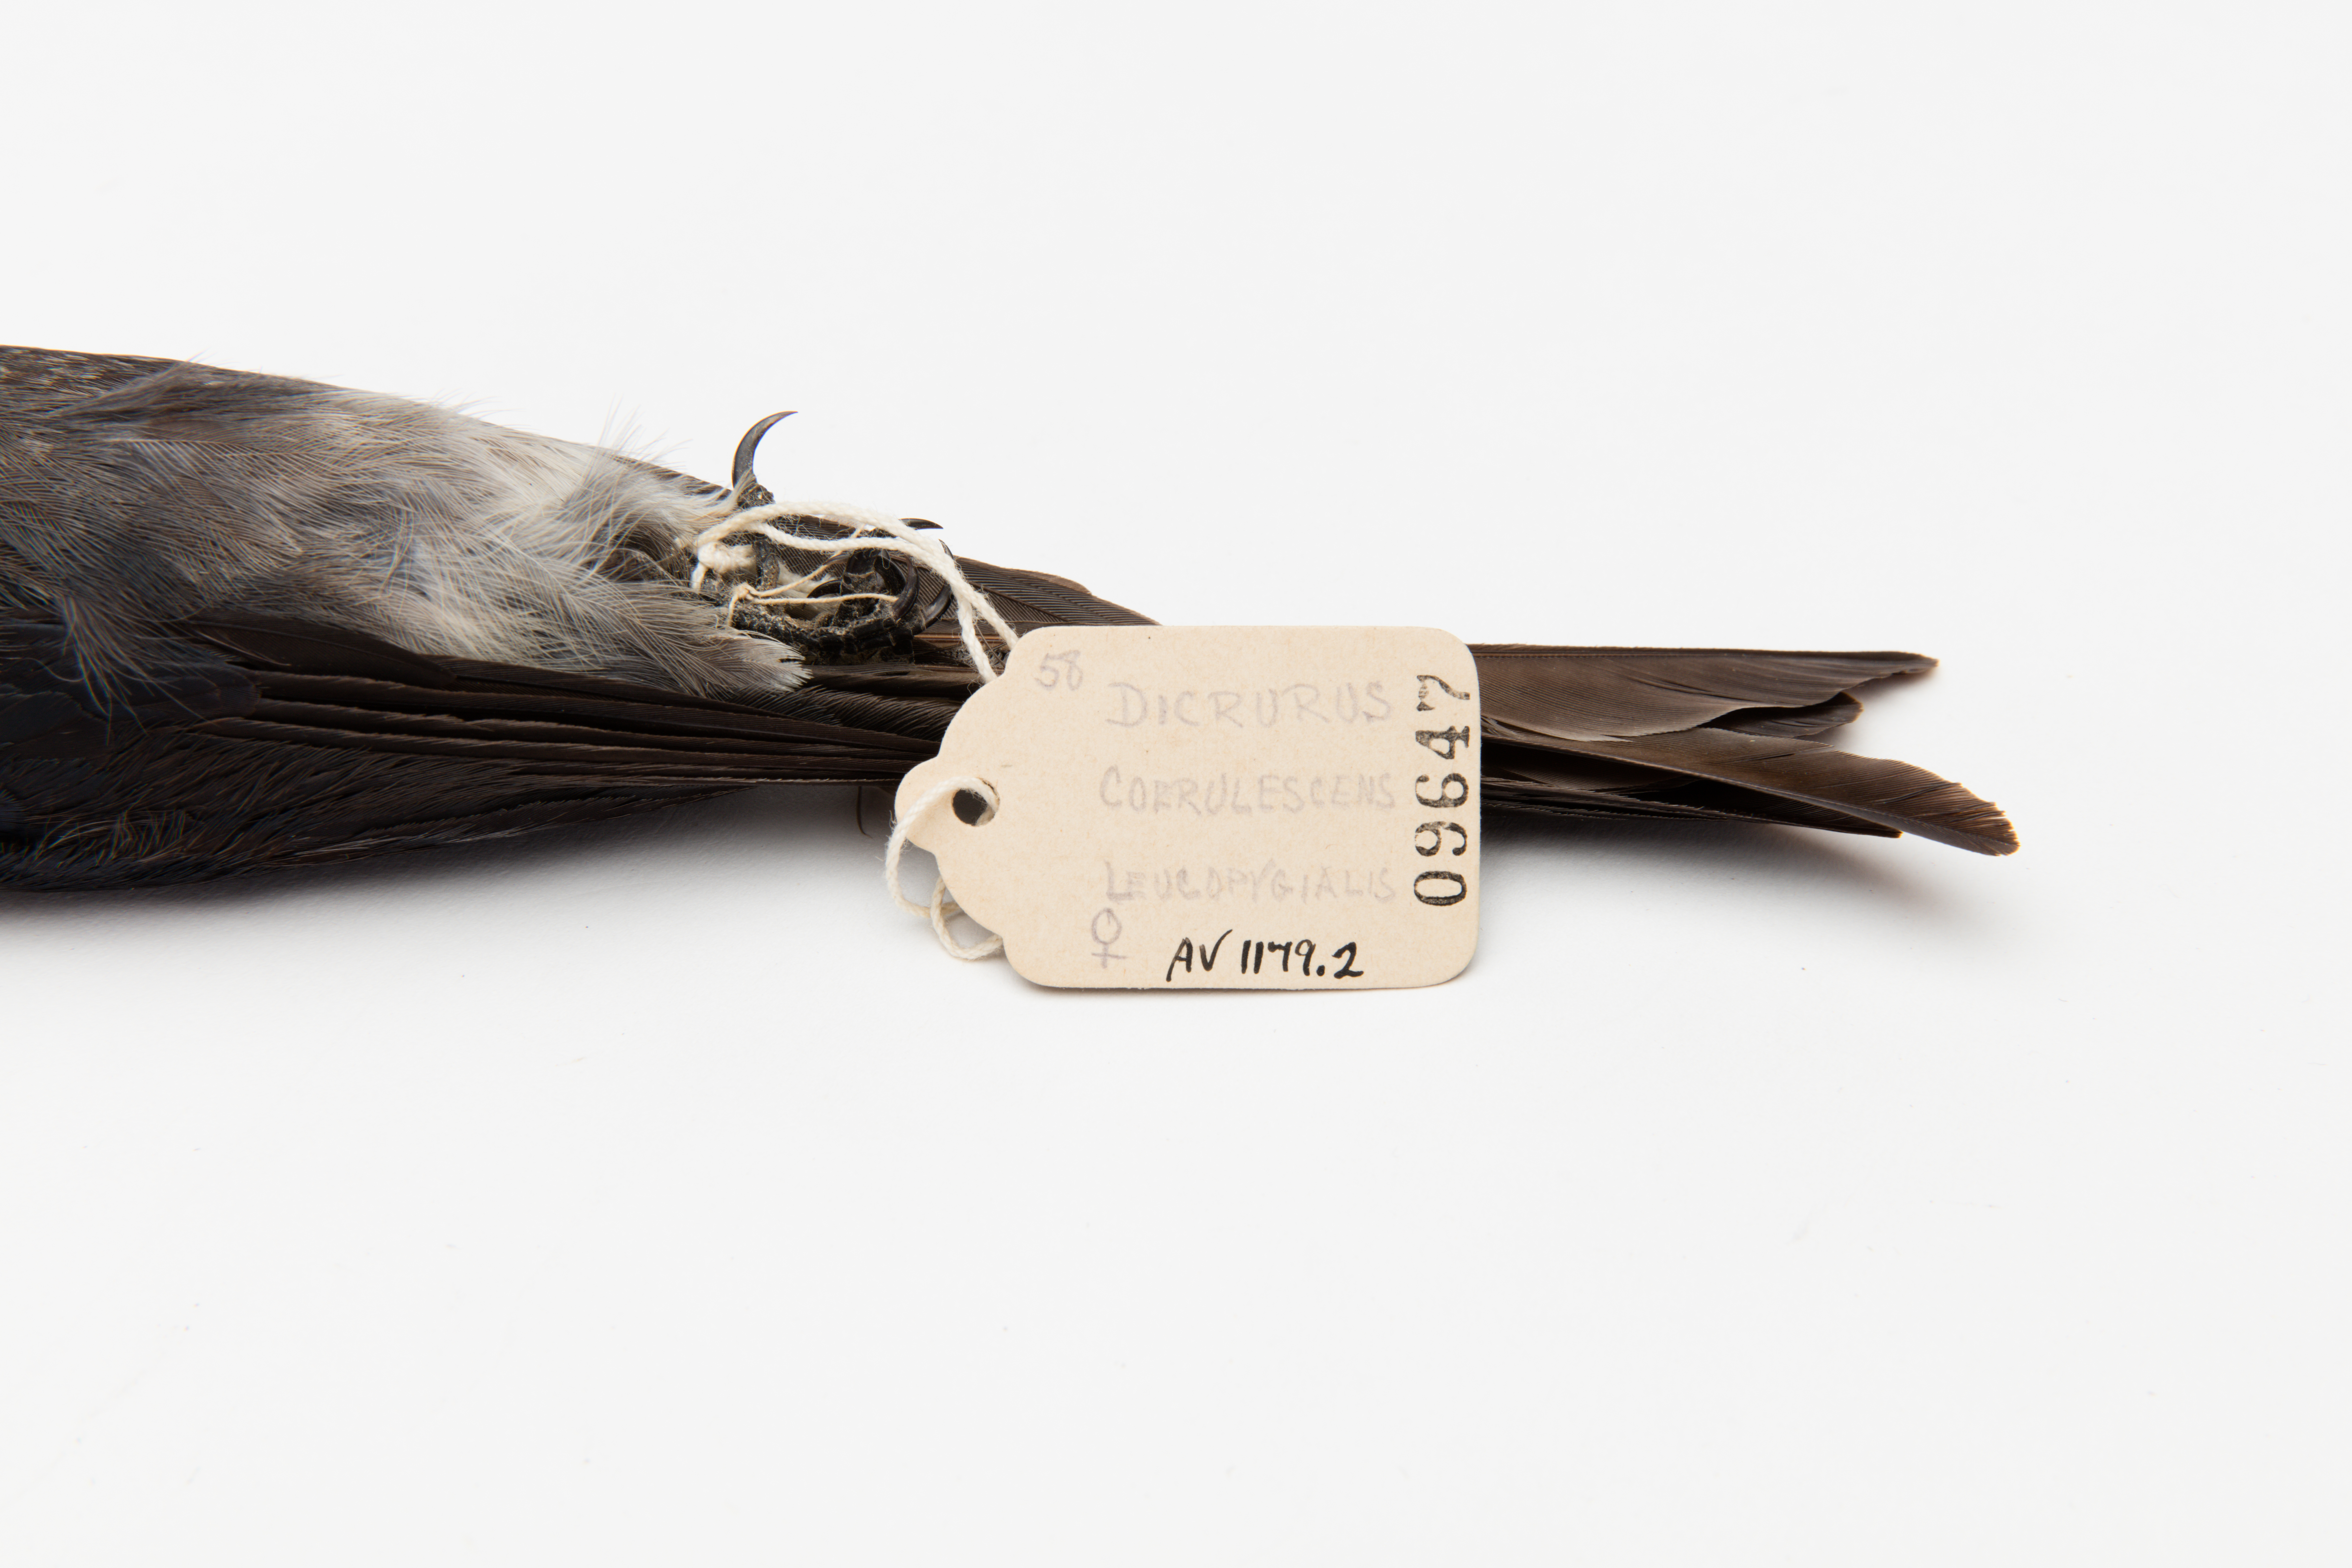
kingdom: Animalia
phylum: Chordata
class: Aves
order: Passeriformes
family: Dicruridae
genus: Dicrurus
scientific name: Dicrurus caerulescens
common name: White-bellied drongo
